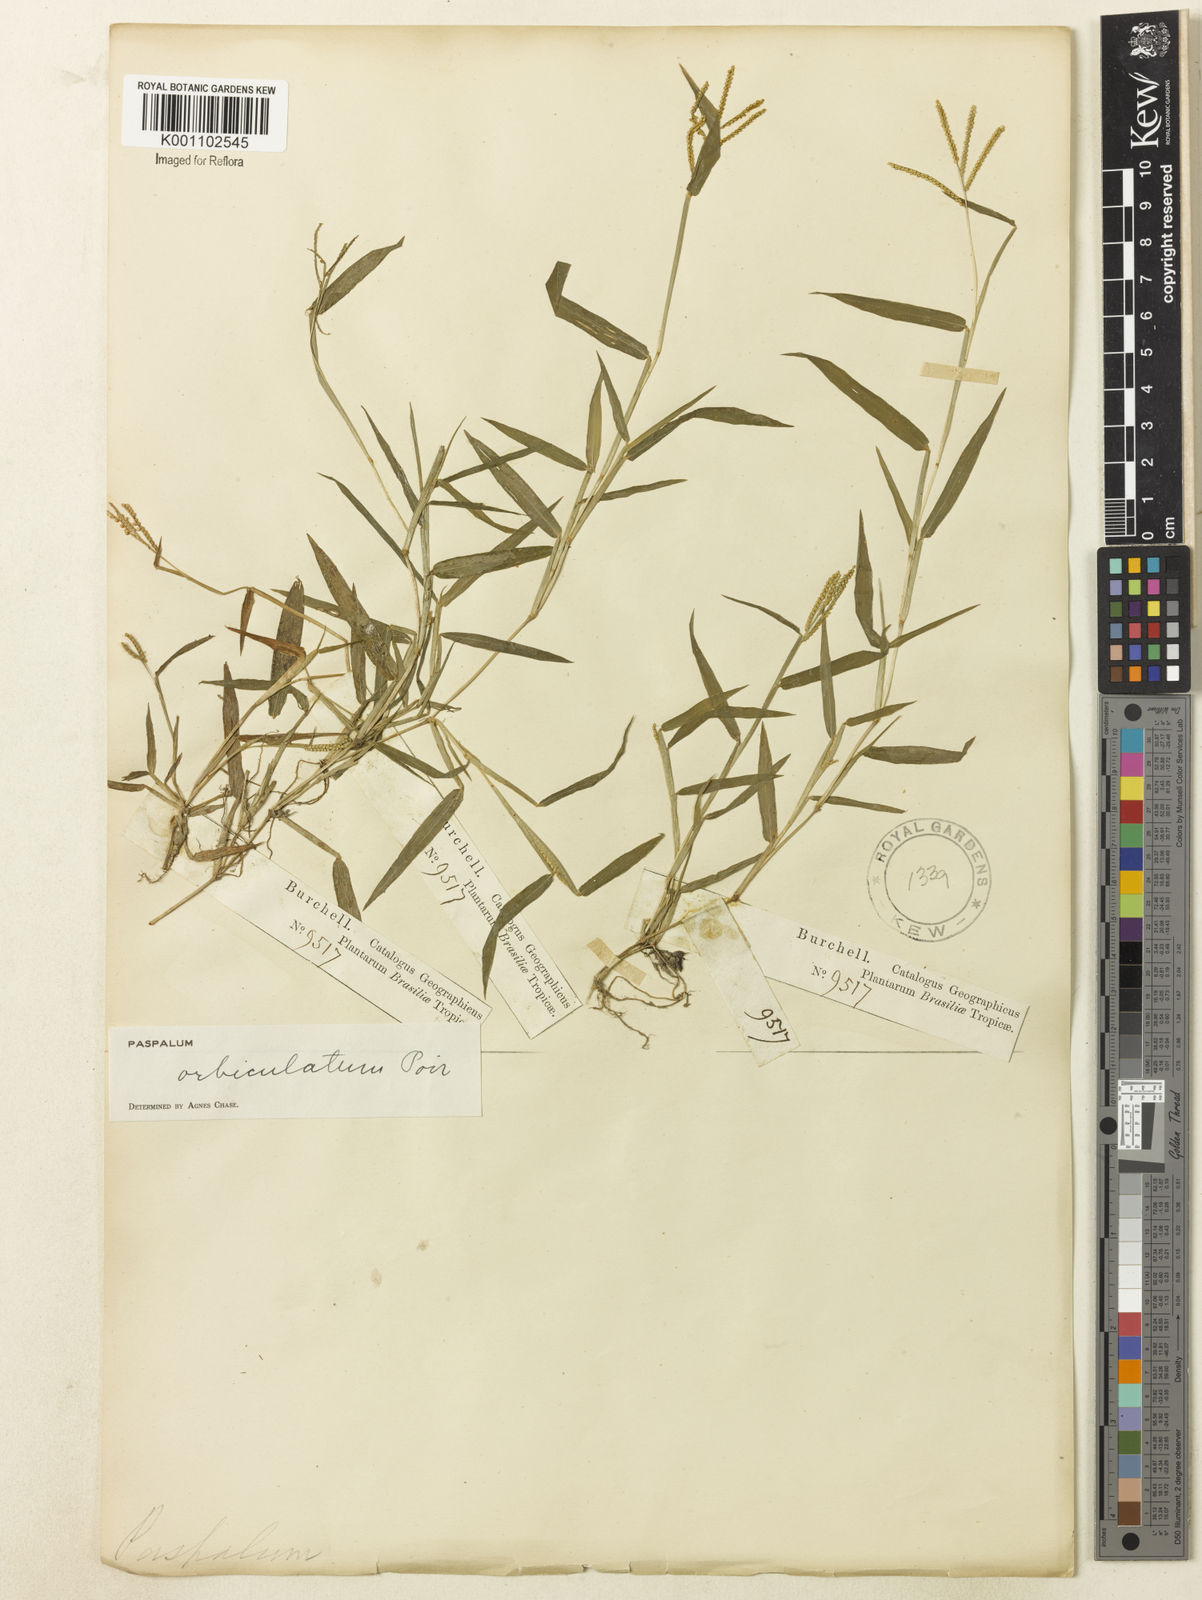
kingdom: Plantae
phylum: Tracheophyta
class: Liliopsida
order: Poales
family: Poaceae
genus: Paspalum
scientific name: Paspalum orbiculatum
